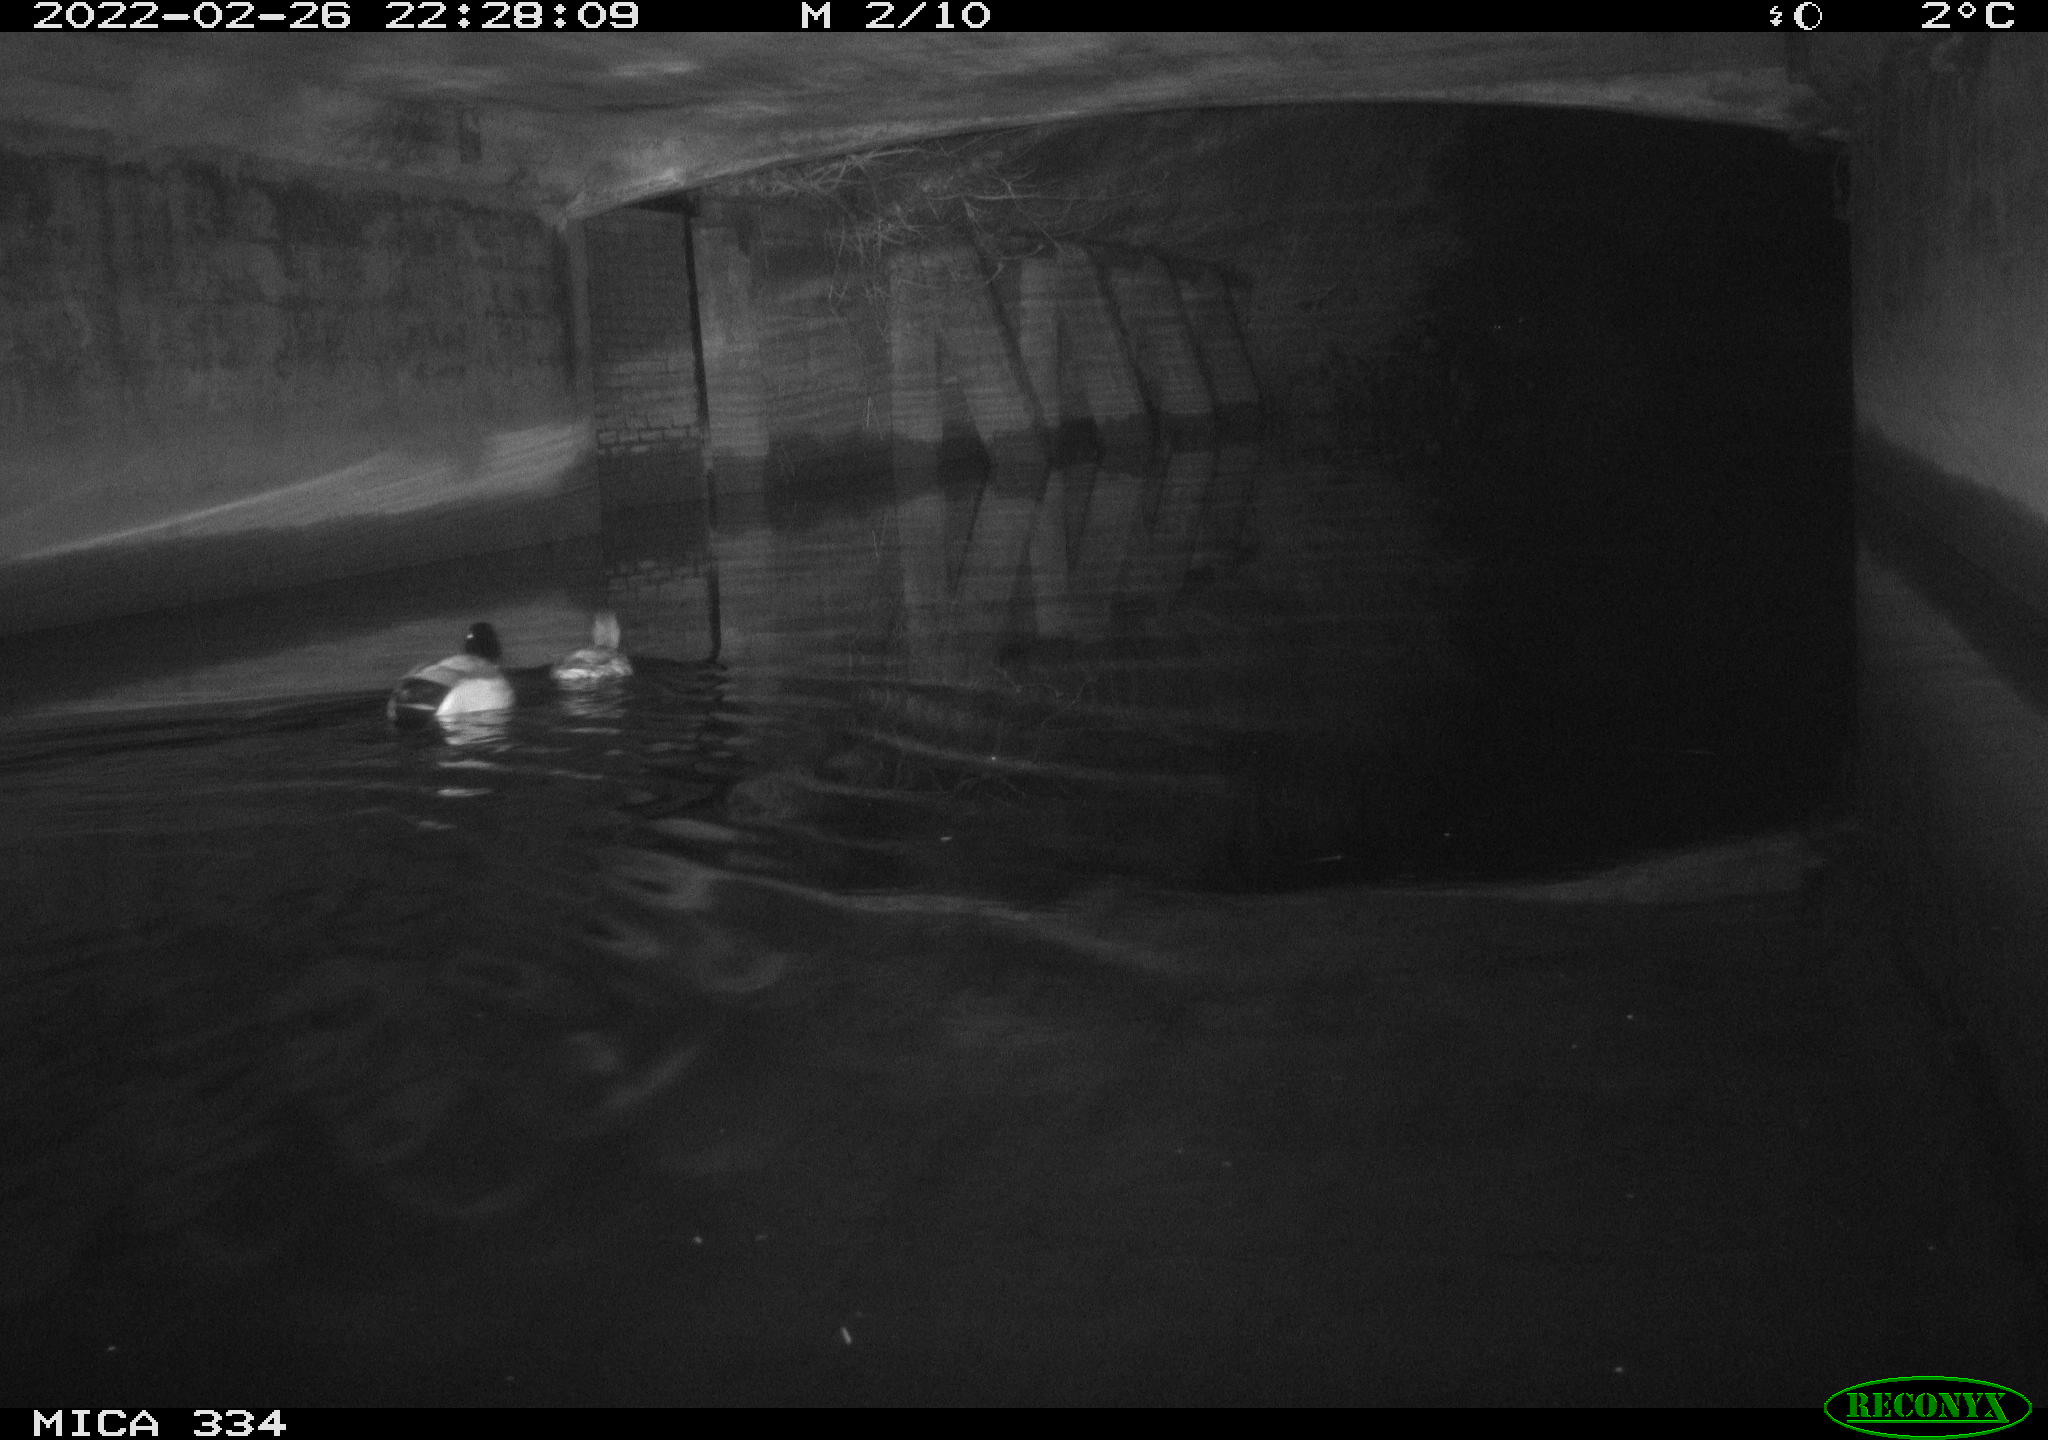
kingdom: Animalia
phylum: Chordata
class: Aves
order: Anseriformes
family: Anatidae
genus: Anas
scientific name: Anas platyrhynchos
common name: Mallard
